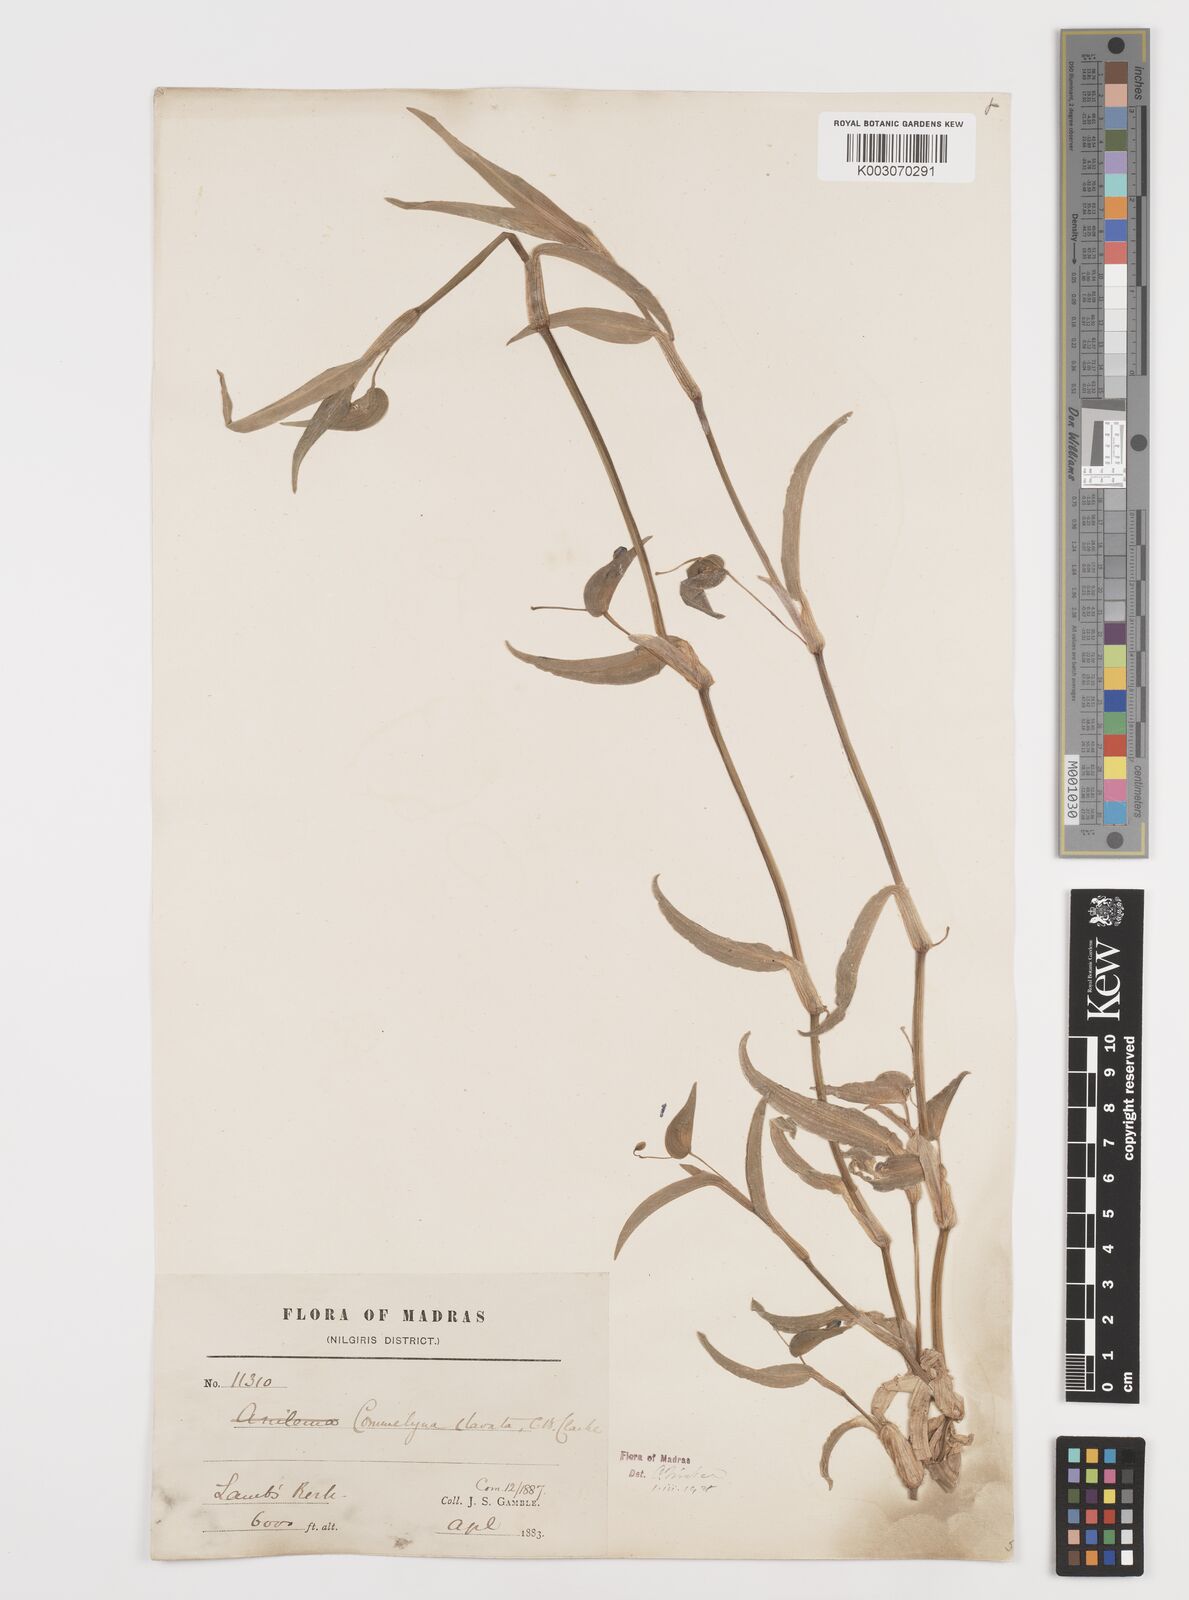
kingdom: Plantae
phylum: Tracheophyta
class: Liliopsida
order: Commelinales
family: Commelinaceae
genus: Commelina
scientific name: Commelina clavata
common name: Willow leaved dayflower
